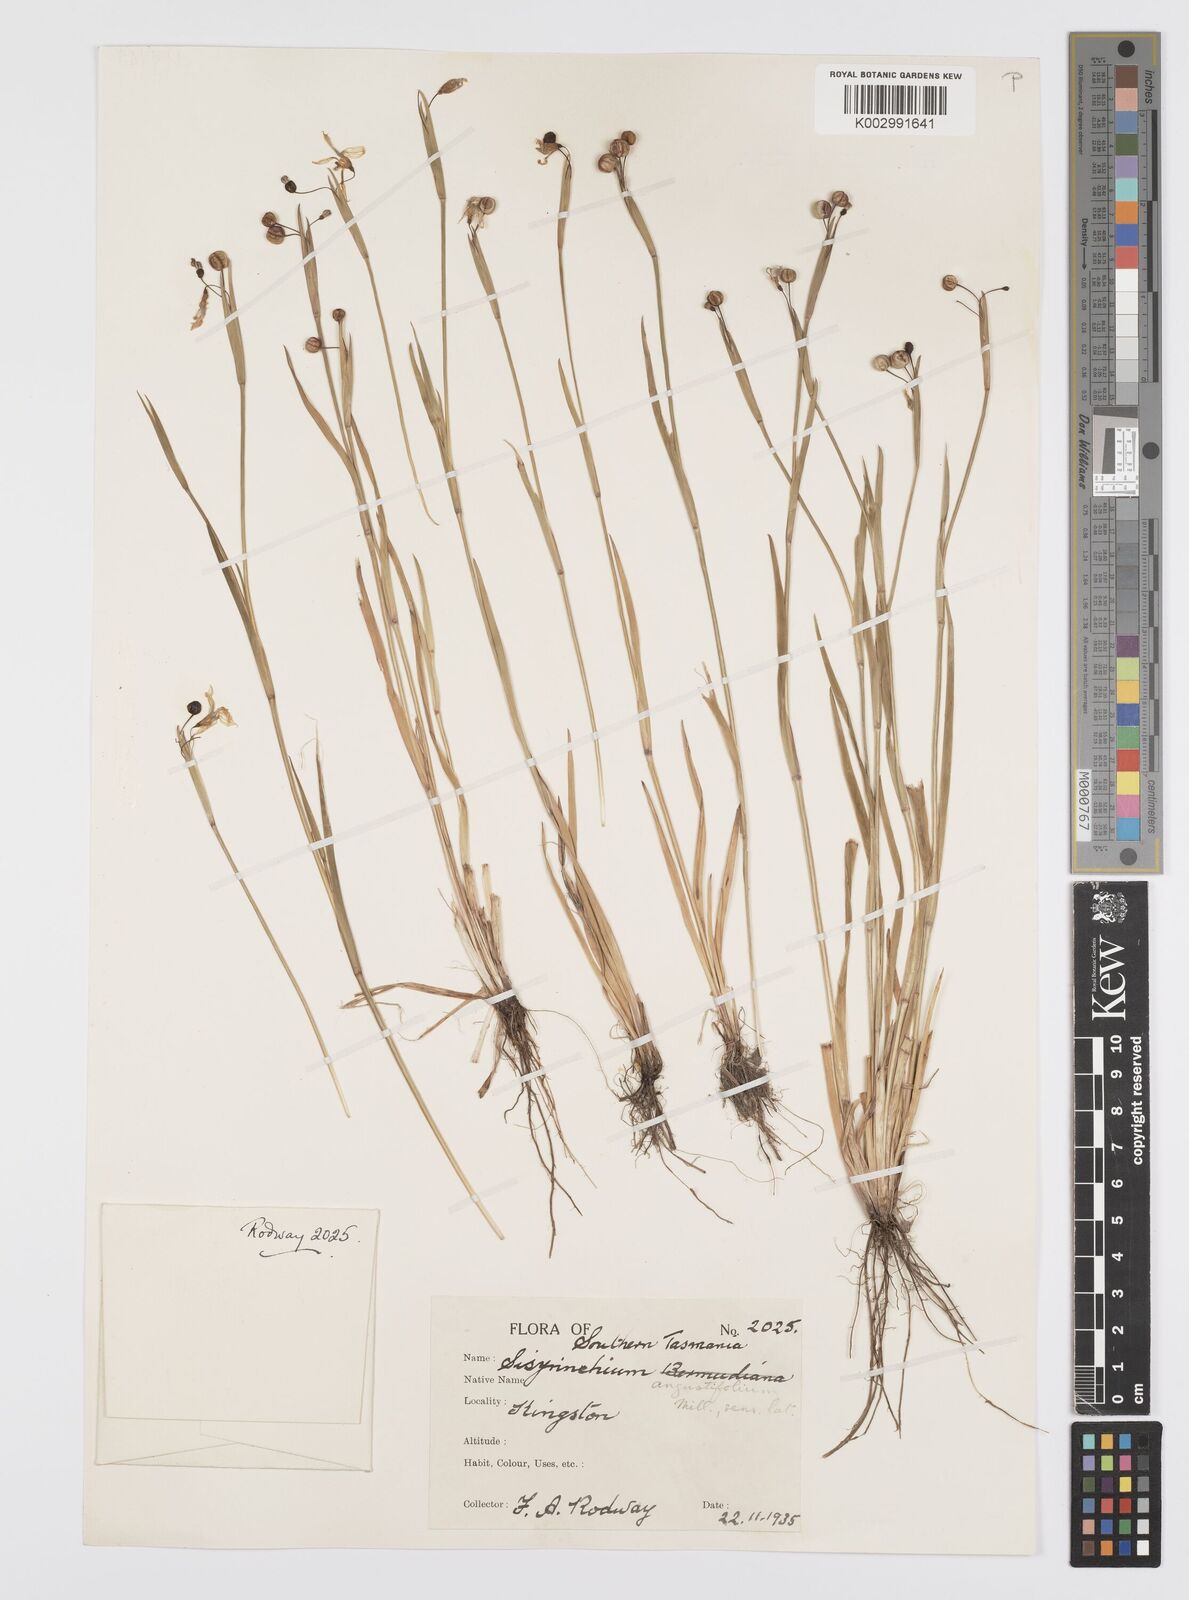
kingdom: Plantae
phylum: Tracheophyta
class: Liliopsida
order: Asparagales
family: Iridaceae
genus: Sisyrinchium
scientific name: Sisyrinchium angustifolium
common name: Narrow-leaf blue-eyed-grass
